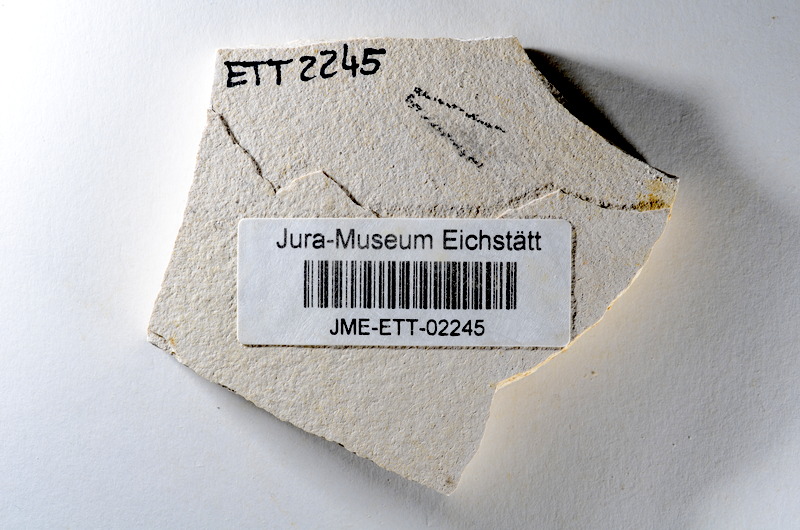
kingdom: Animalia
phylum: Chordata
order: Salmoniformes
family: Orthogonikleithridae
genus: Orthogonikleithrus
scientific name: Orthogonikleithrus hoelli
